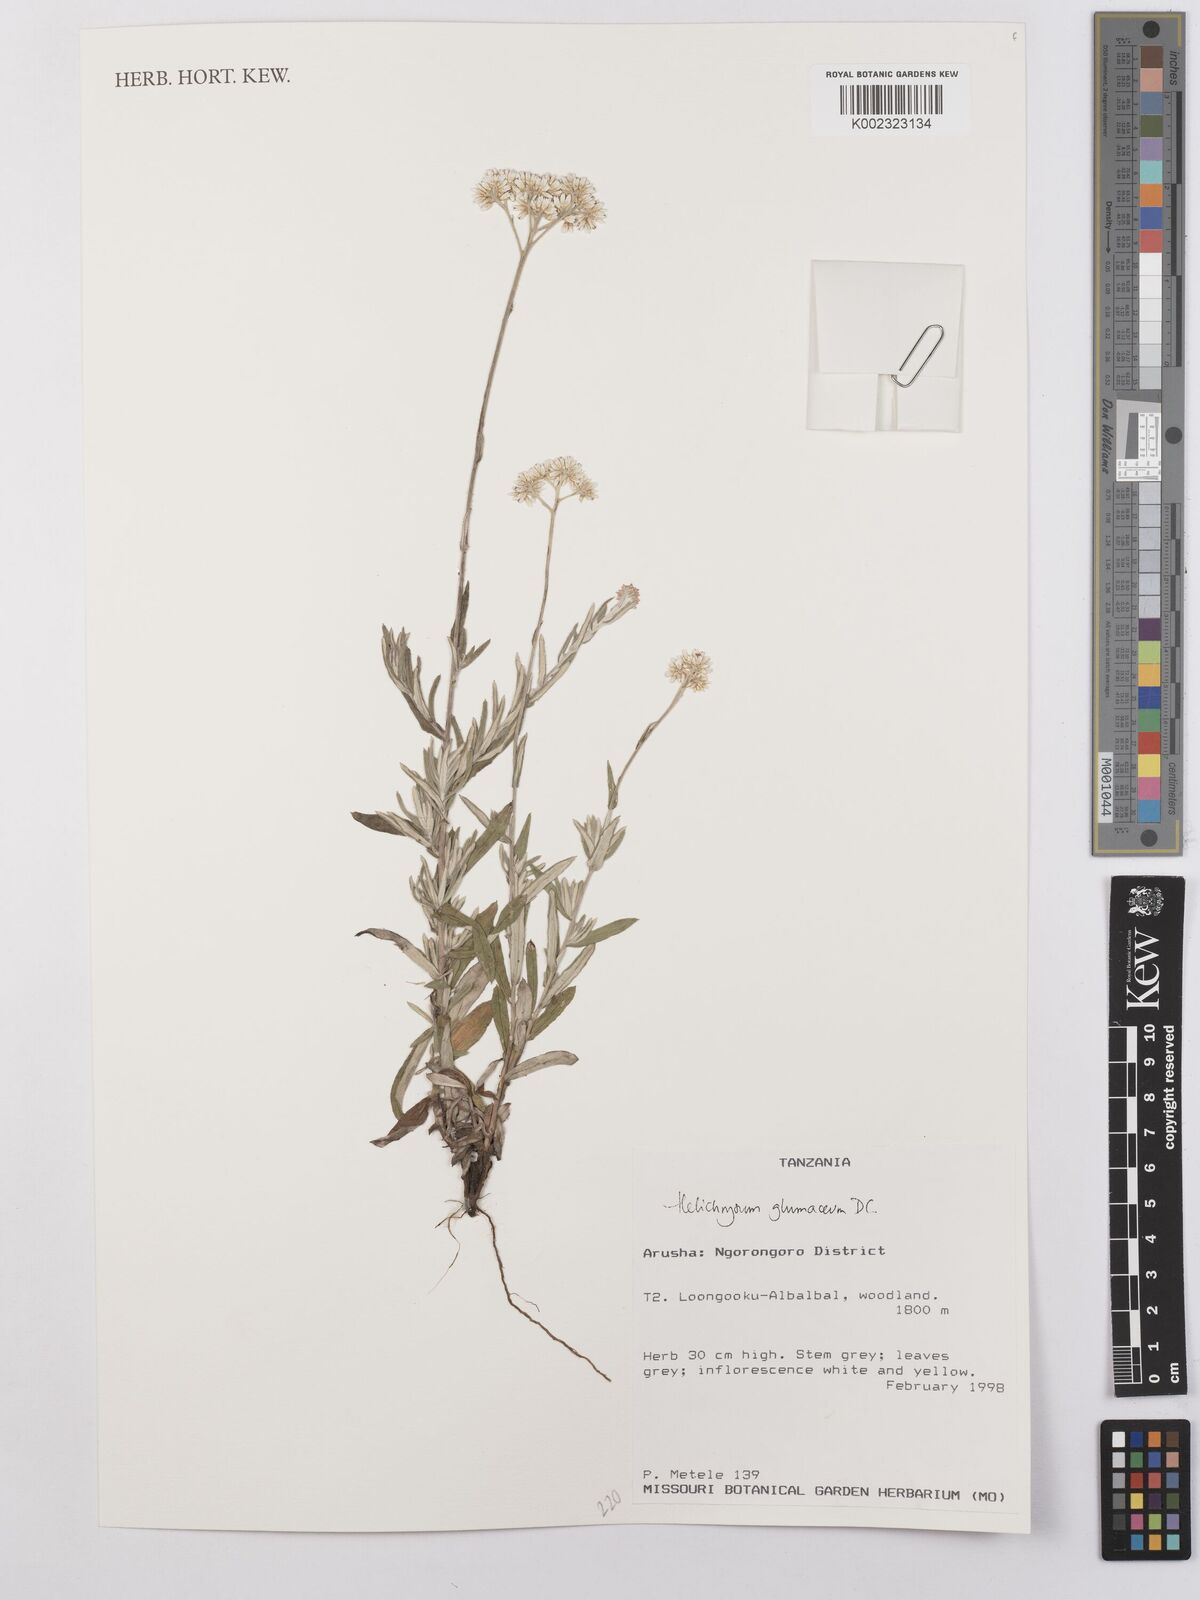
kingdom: Plantae
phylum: Tracheophyta
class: Magnoliopsida
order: Asterales
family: Asteraceae
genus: Helichrysum
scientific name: Helichrysum glumaceum
